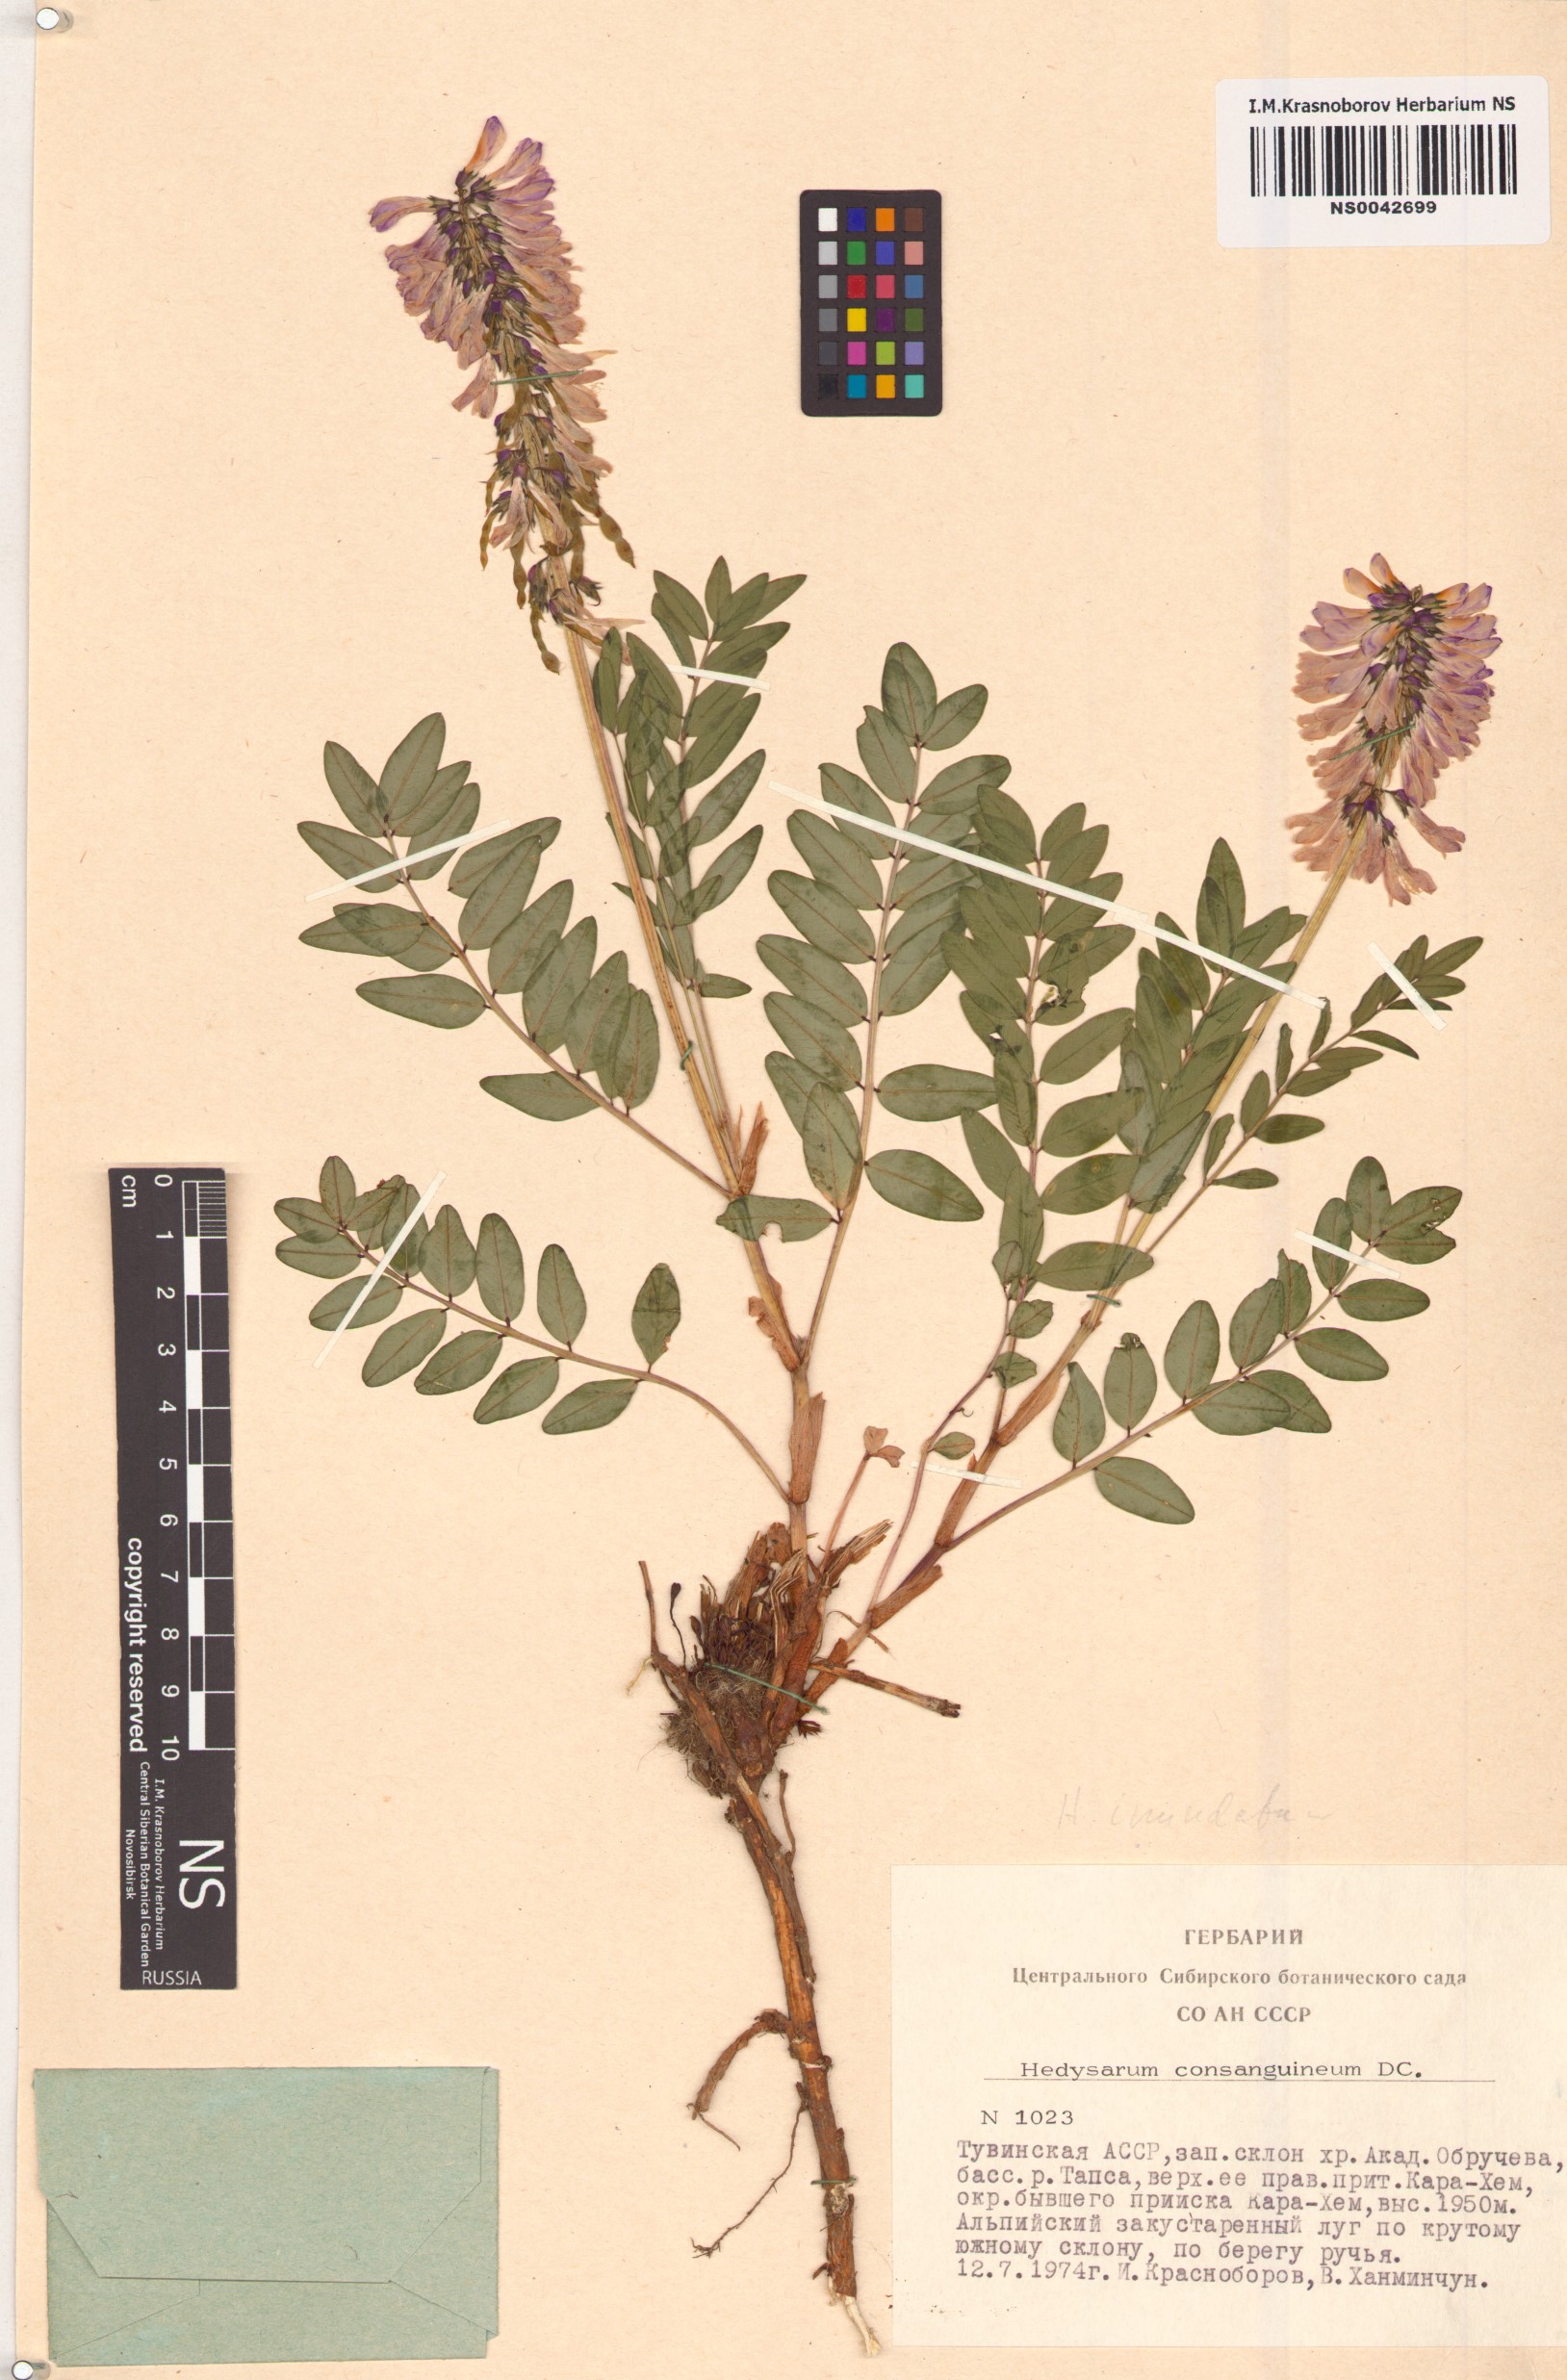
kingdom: Plantae
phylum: Tracheophyta
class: Magnoliopsida
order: Fabales
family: Fabaceae
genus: Hedysarum
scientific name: Hedysarum consanguineum
